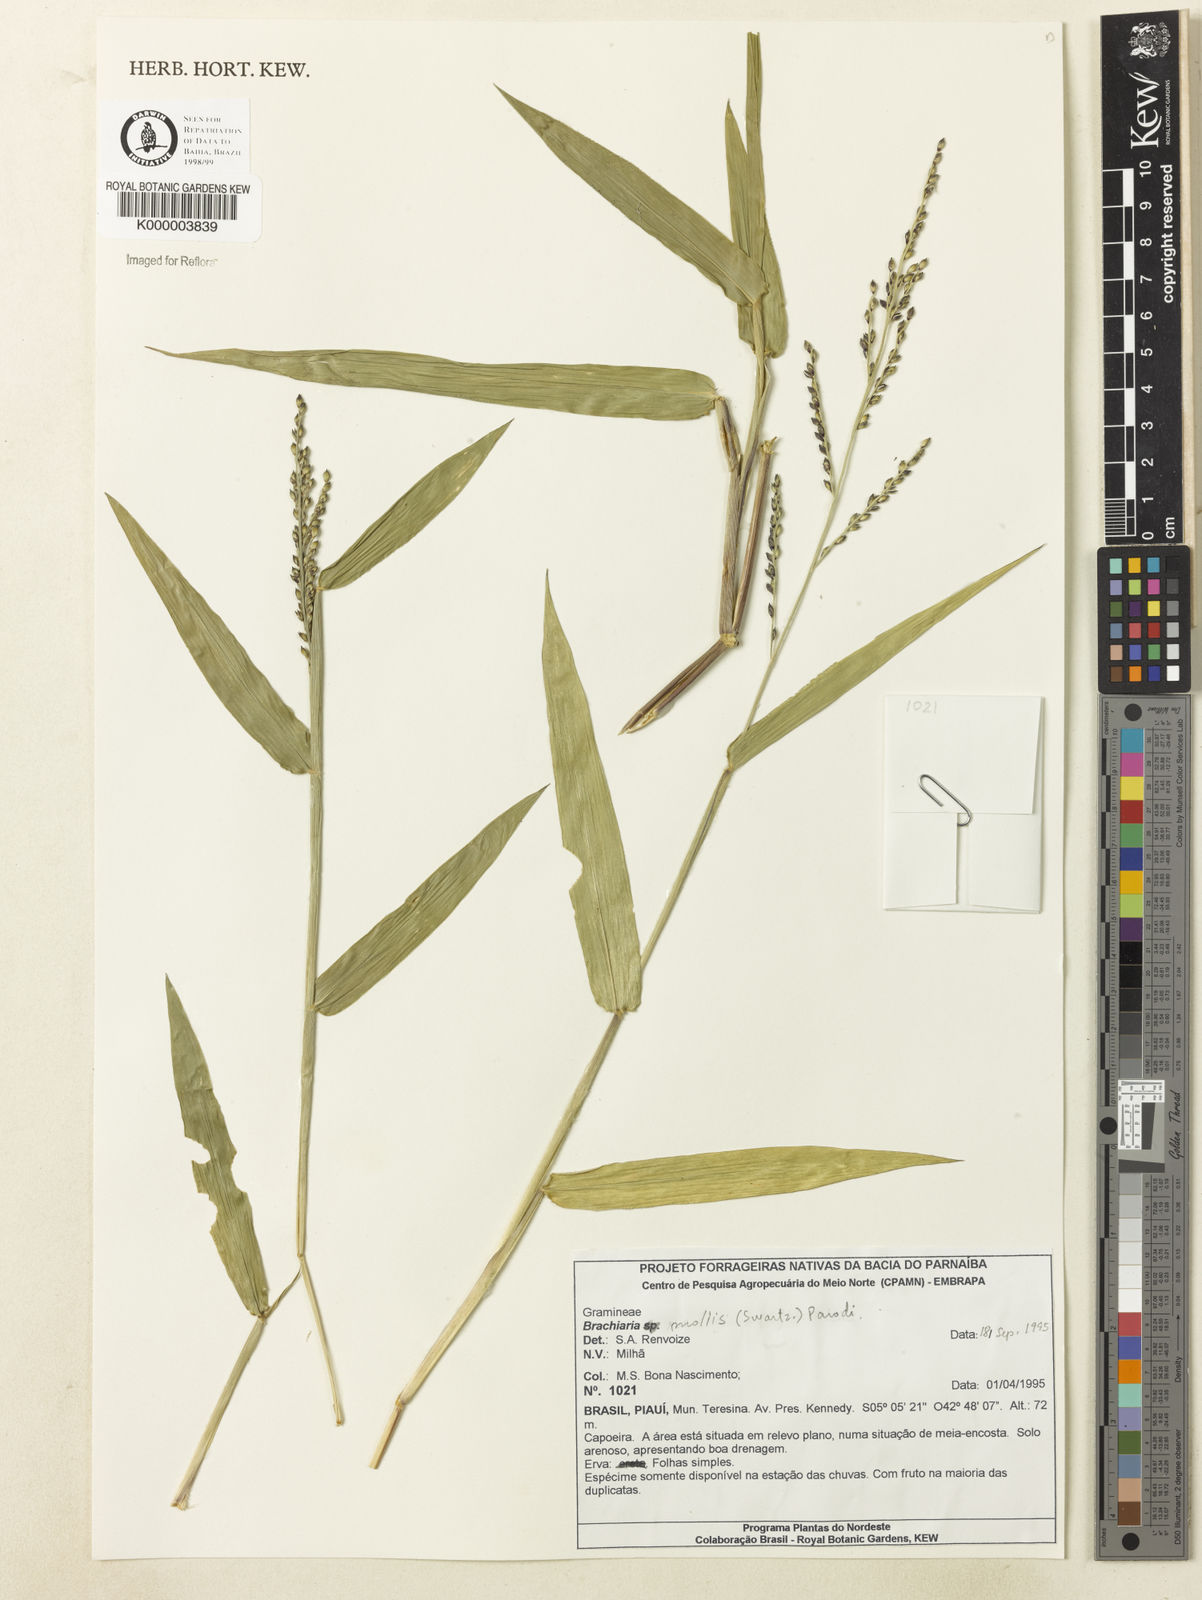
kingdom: Plantae
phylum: Tracheophyta
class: Liliopsida
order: Poales
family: Poaceae
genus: Urochloa
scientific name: Urochloa mollis
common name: Grass
